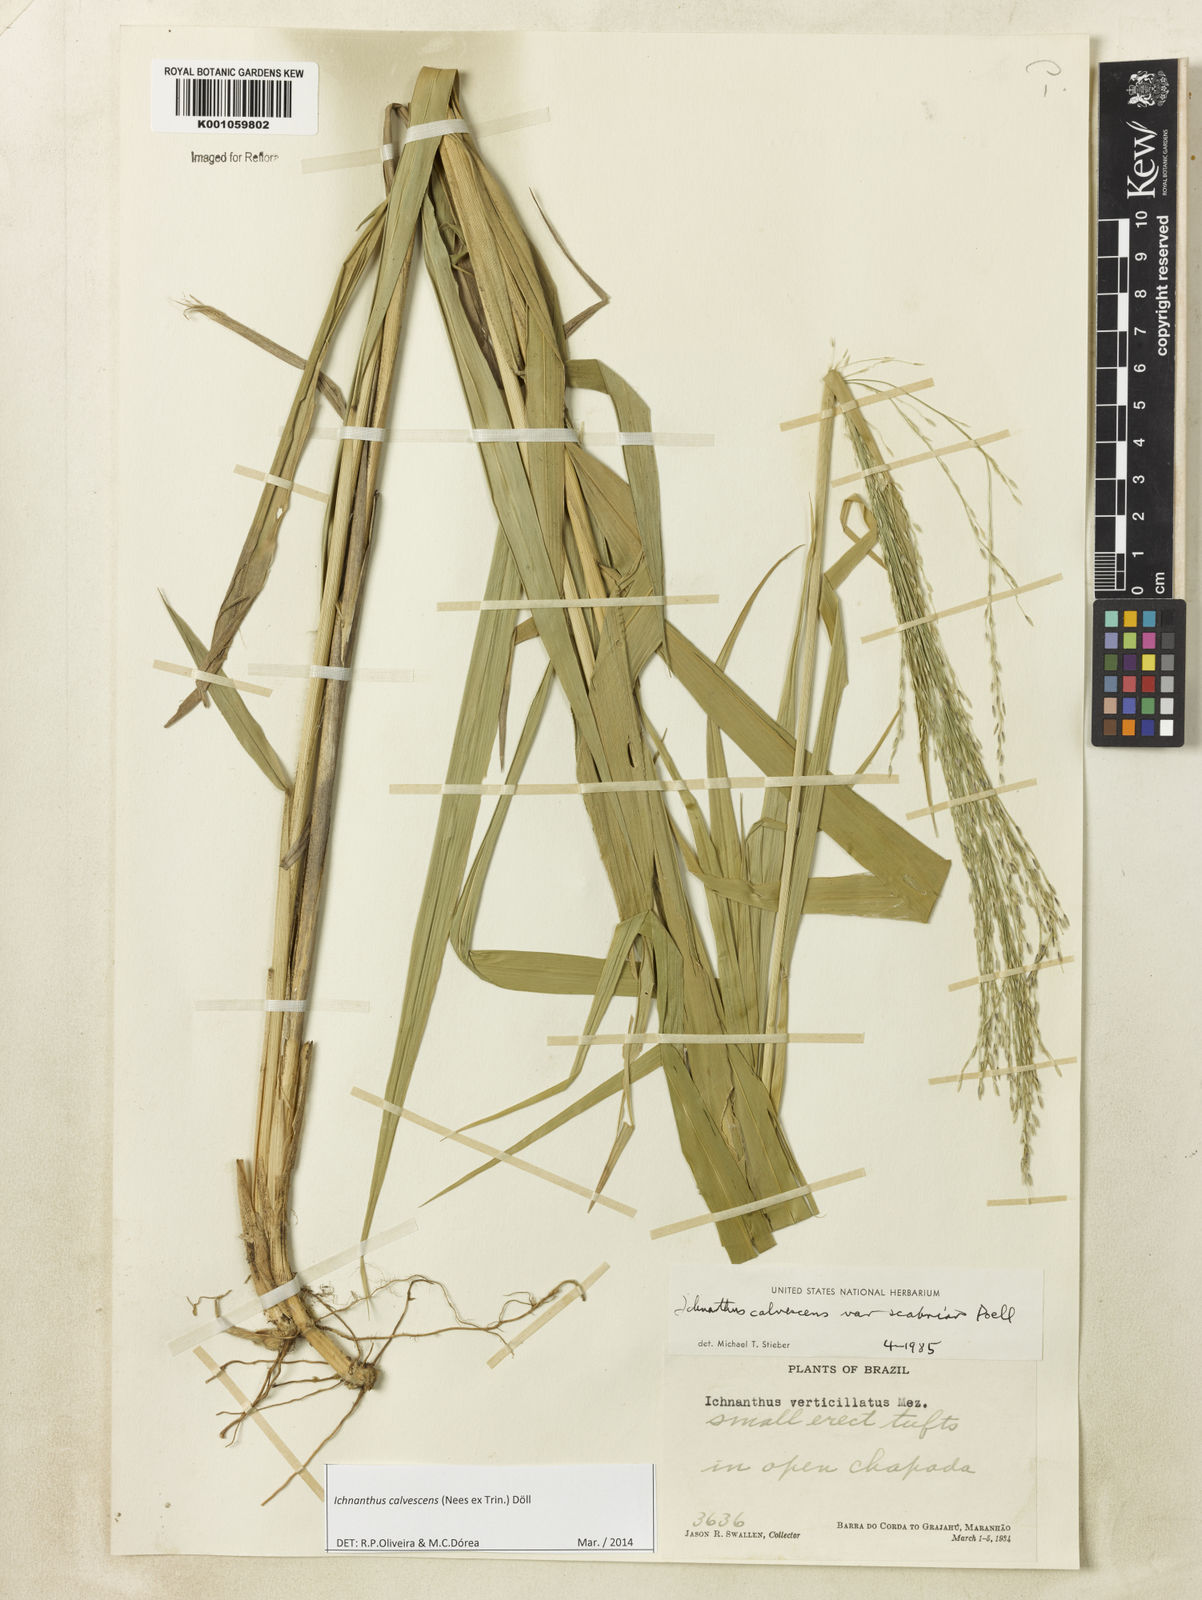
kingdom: Plantae
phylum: Tracheophyta
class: Liliopsida
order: Poales
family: Poaceae
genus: Ichnanthus
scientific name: Ichnanthus
